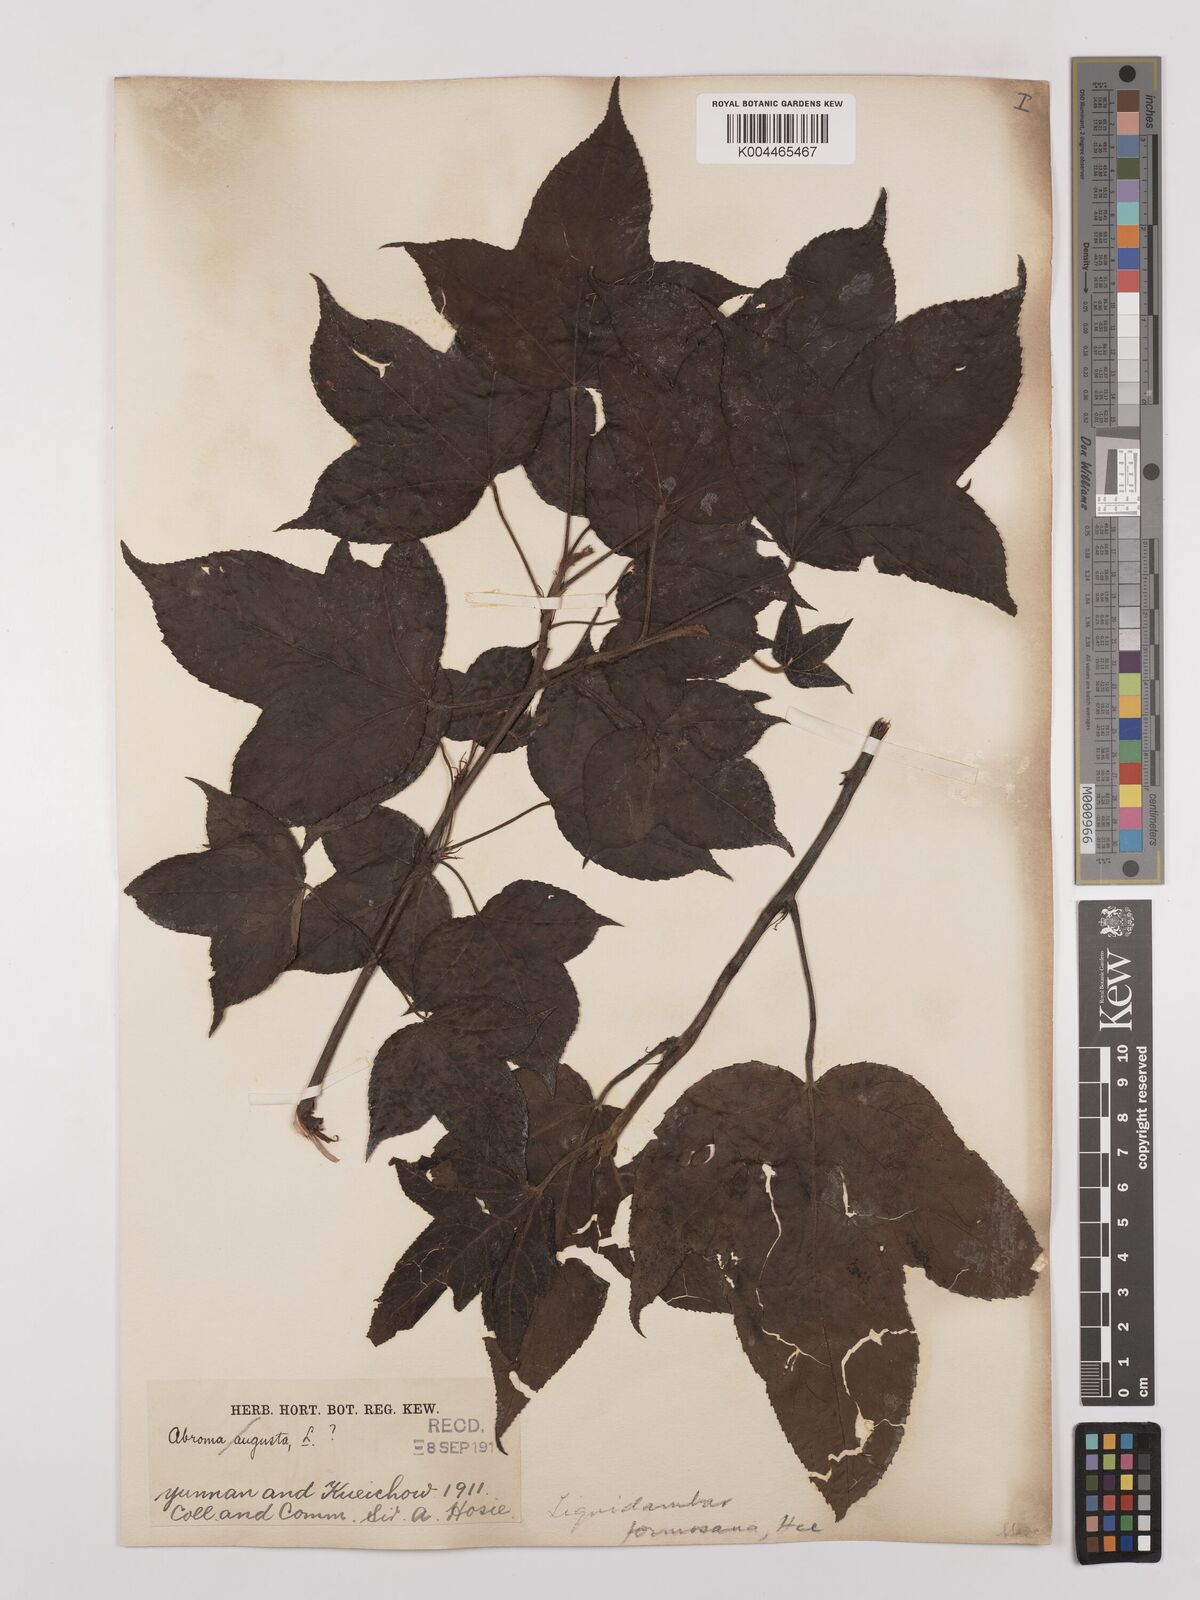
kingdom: Plantae
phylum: Tracheophyta
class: Magnoliopsida
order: Saxifragales
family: Altingiaceae
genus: Liquidambar
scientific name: Liquidambar formosana
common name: Chinese sweet gum
